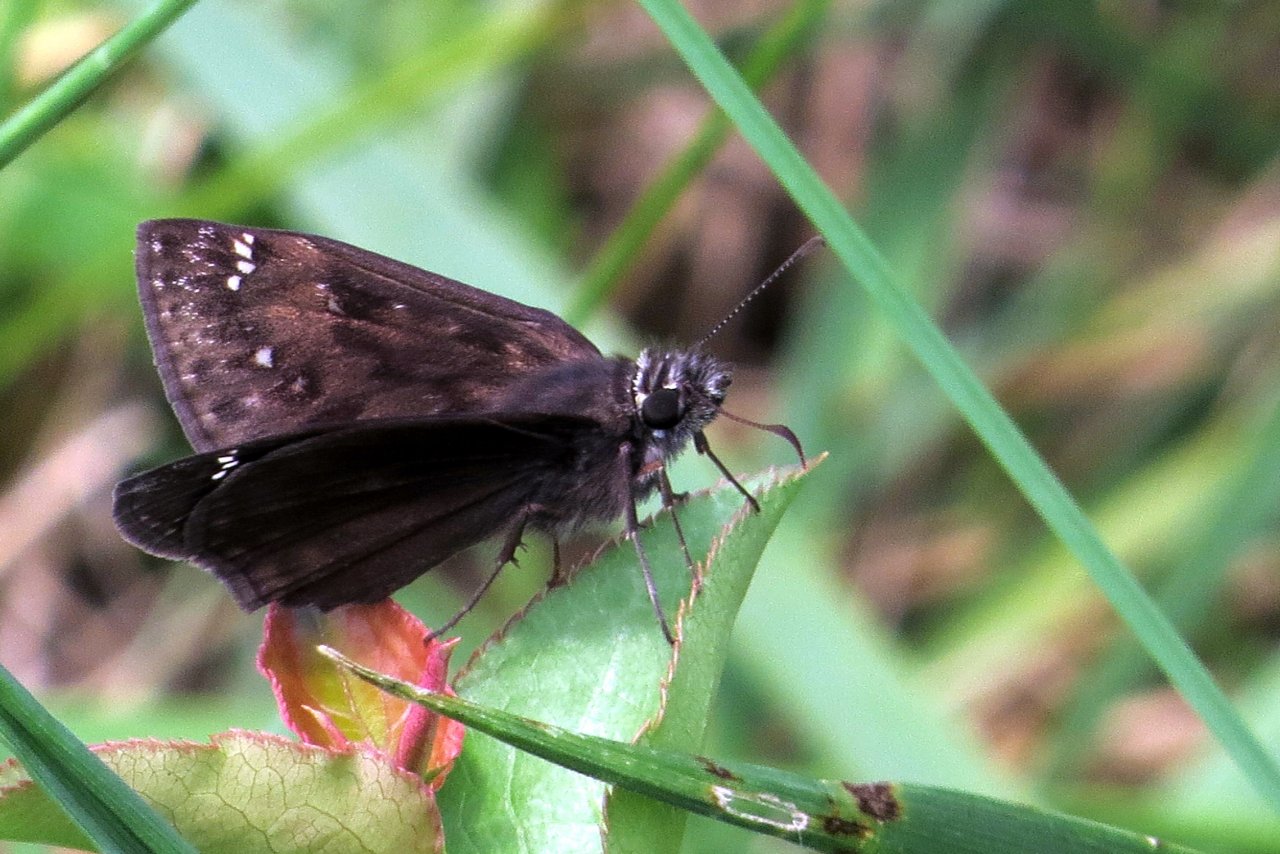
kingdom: Animalia
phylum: Arthropoda
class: Insecta
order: Lepidoptera
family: Hesperiidae
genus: Gesta
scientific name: Gesta
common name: Horace's Duskywing
